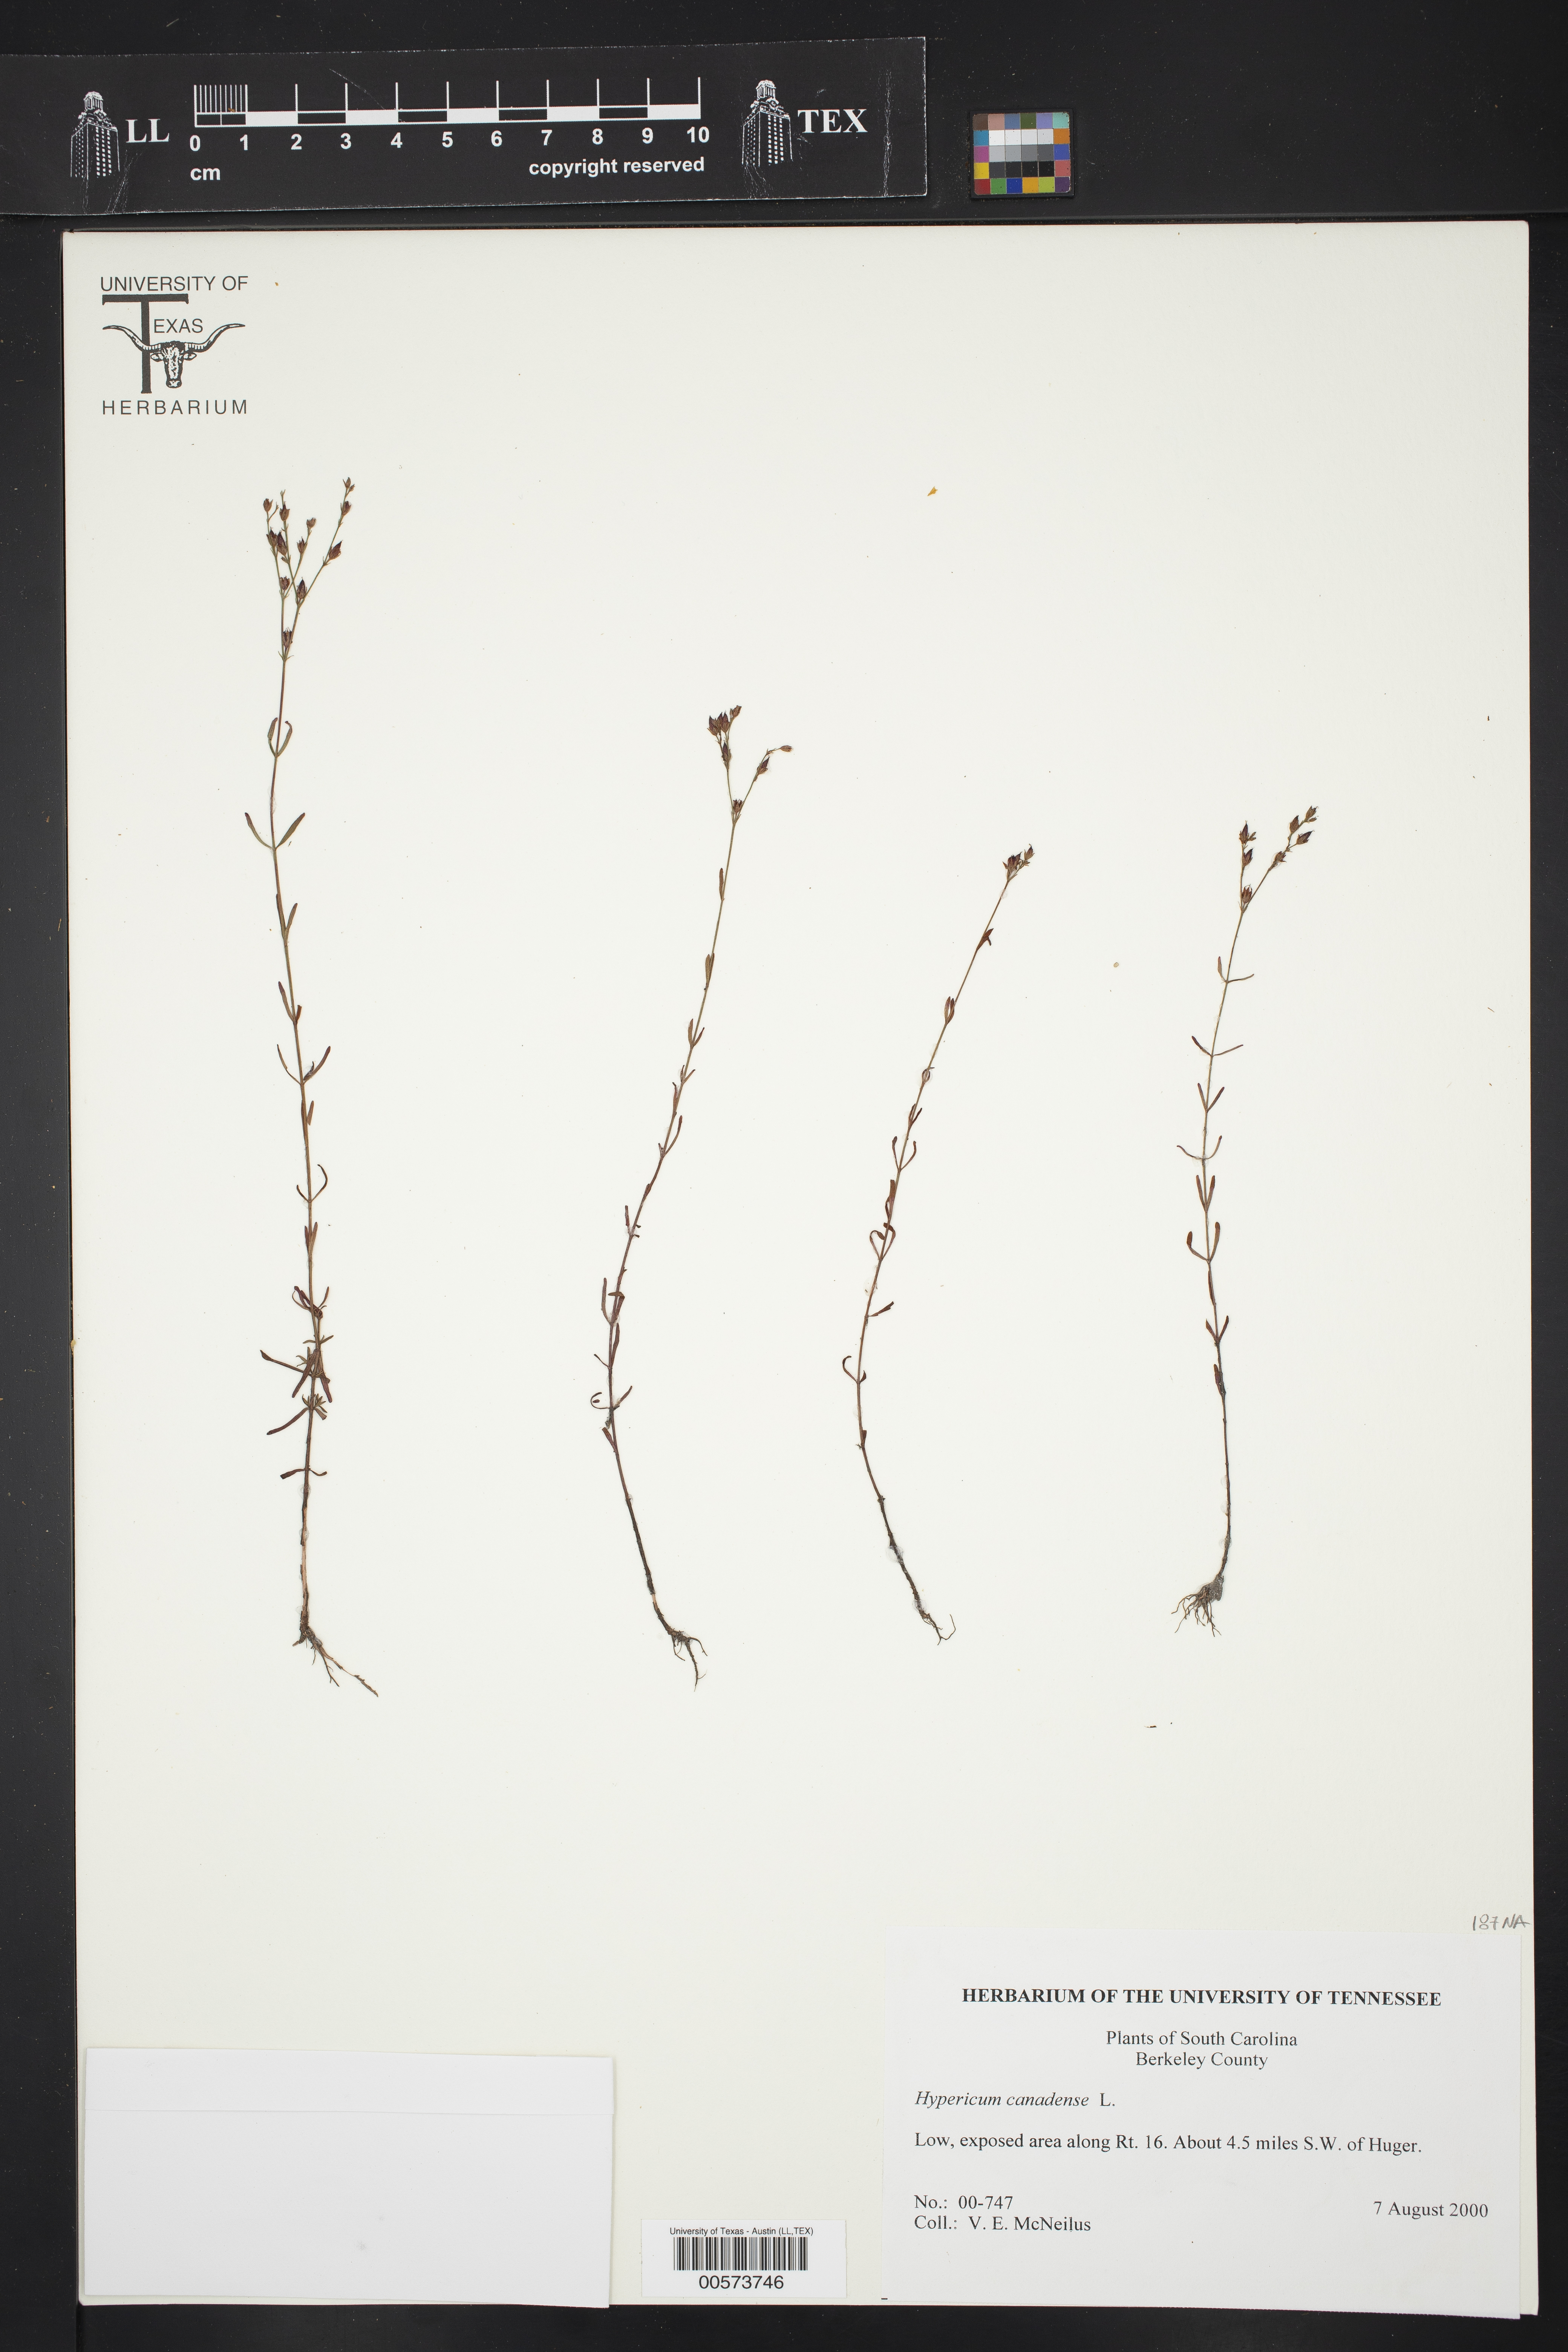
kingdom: Plantae
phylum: Tracheophyta
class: Magnoliopsida
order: Malpighiales
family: Hypericaceae
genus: Hypericum
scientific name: Hypericum canadense
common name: Irish st. john's-wort
